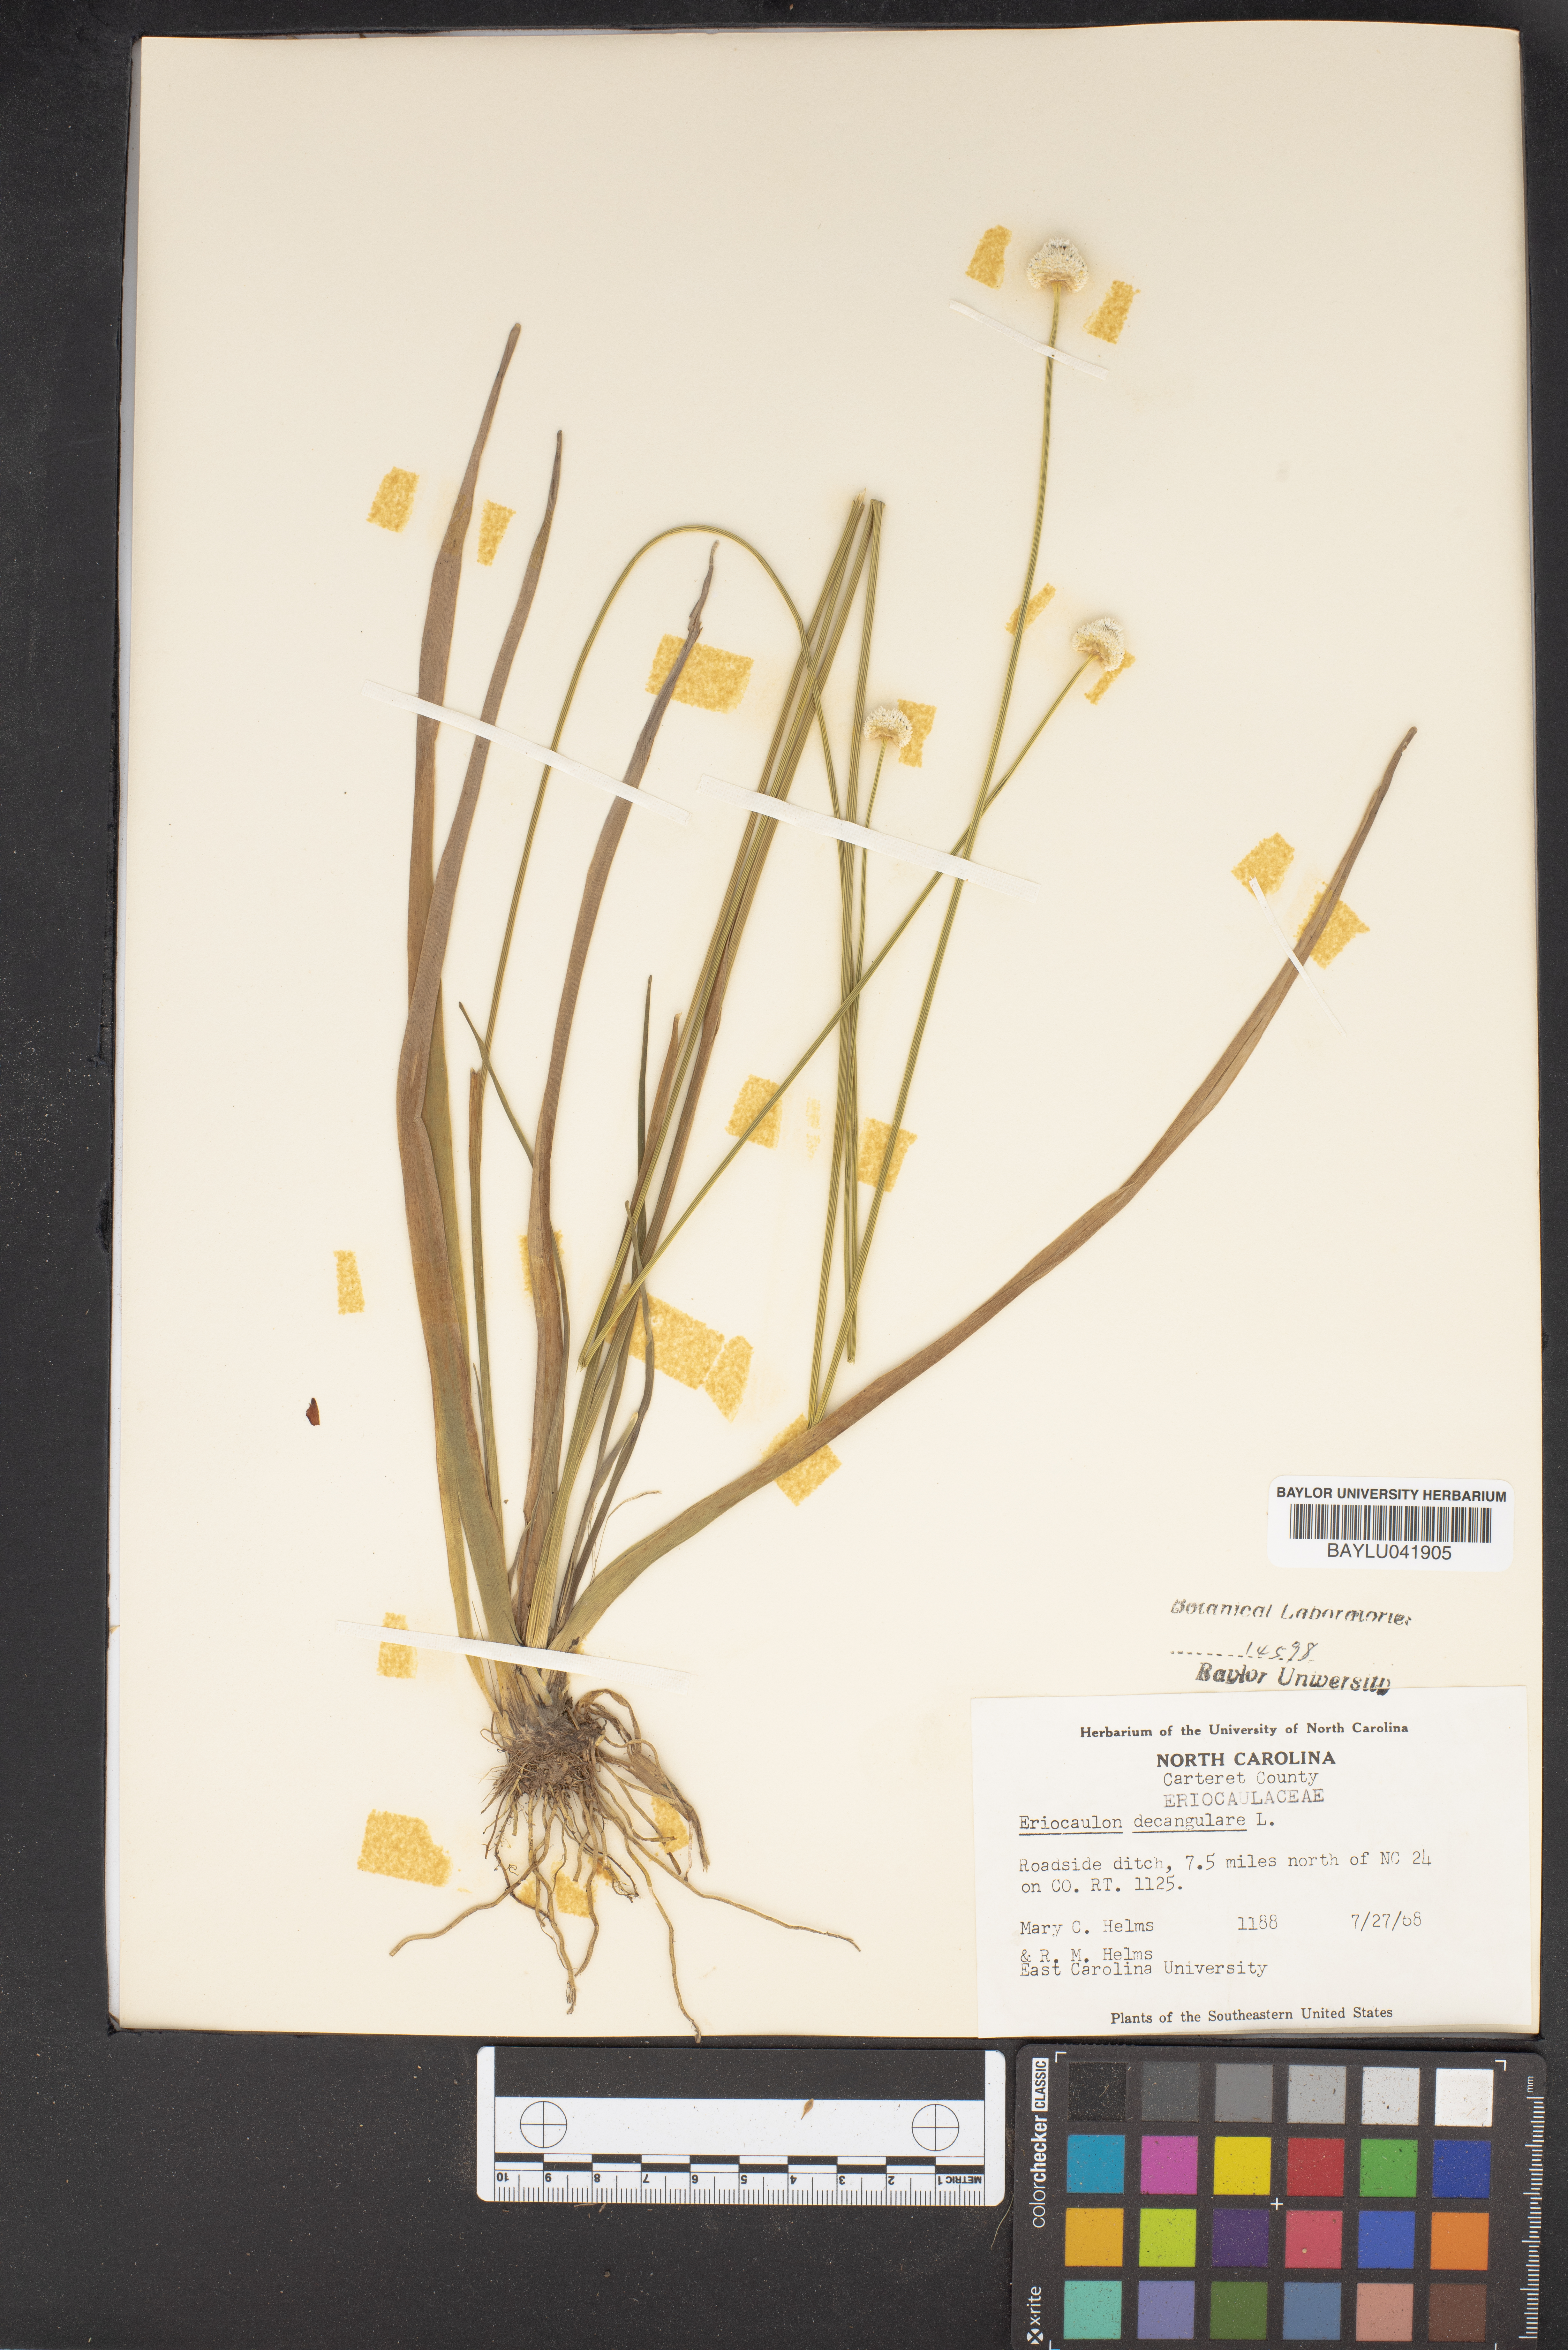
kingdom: Plantae
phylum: Tracheophyta
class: Liliopsida
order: Poales
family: Eriocaulaceae
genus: Eriocaulon
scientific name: Eriocaulon decangulare
